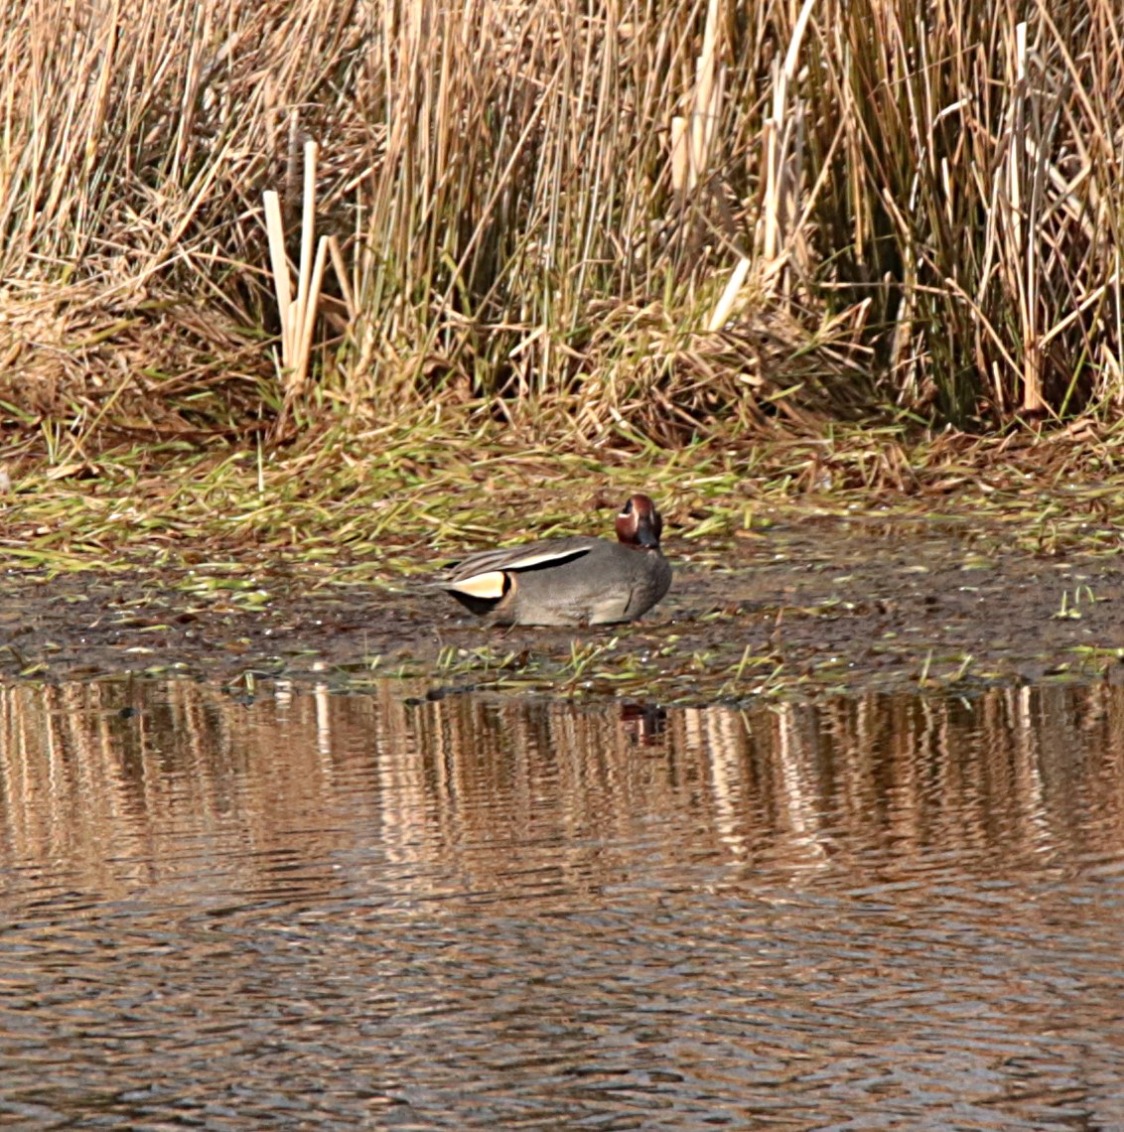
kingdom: Animalia
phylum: Chordata
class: Aves
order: Anseriformes
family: Anatidae
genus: Anas
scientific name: Anas crecca
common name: Krikand
